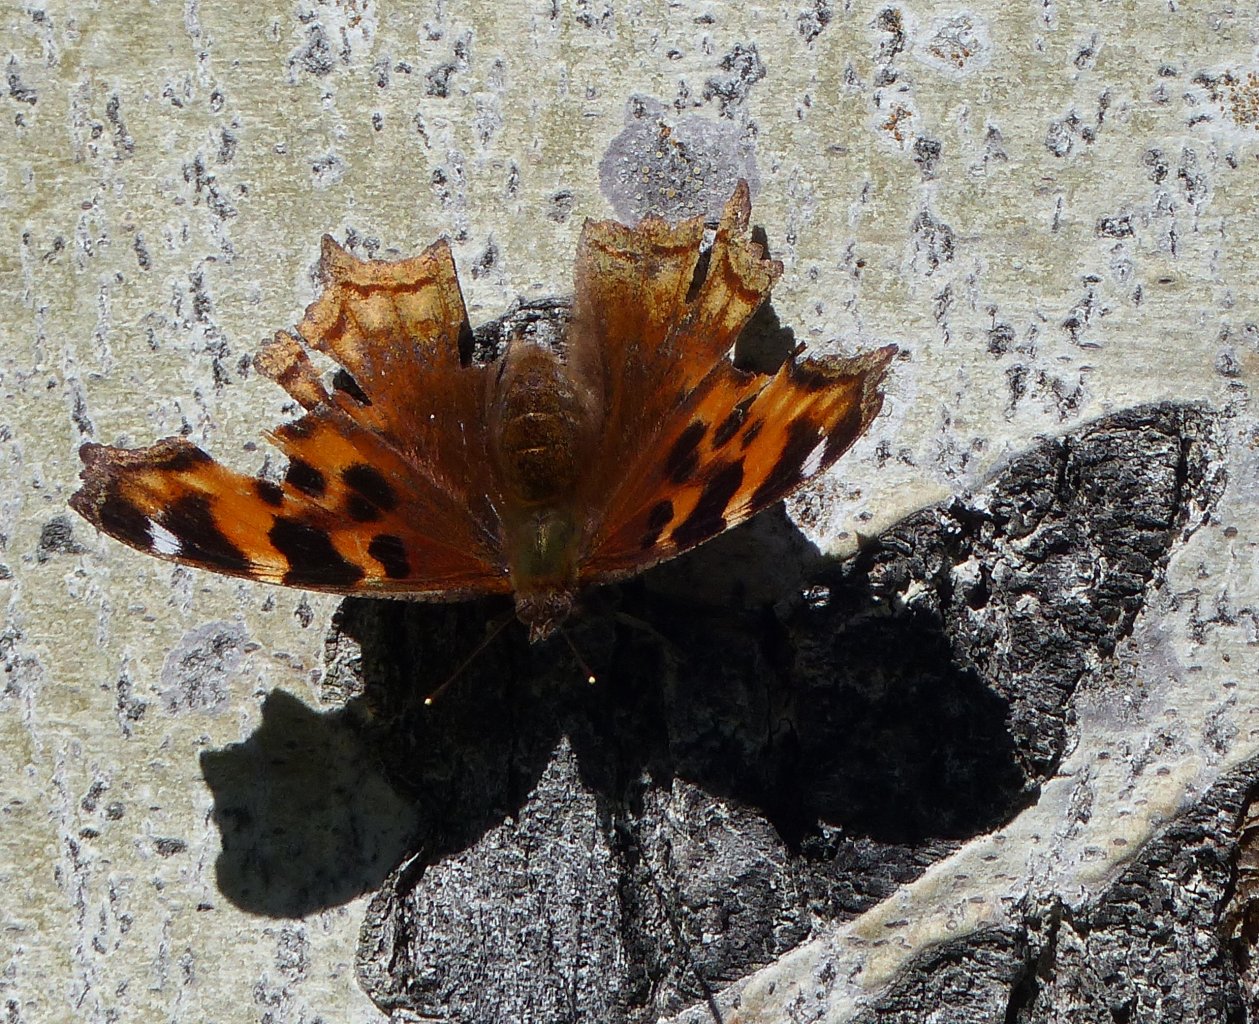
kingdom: Animalia
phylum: Arthropoda
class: Insecta
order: Lepidoptera
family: Nymphalidae
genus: Polygonia
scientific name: Polygonia vaualbum
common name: Compton Tortoiseshell
